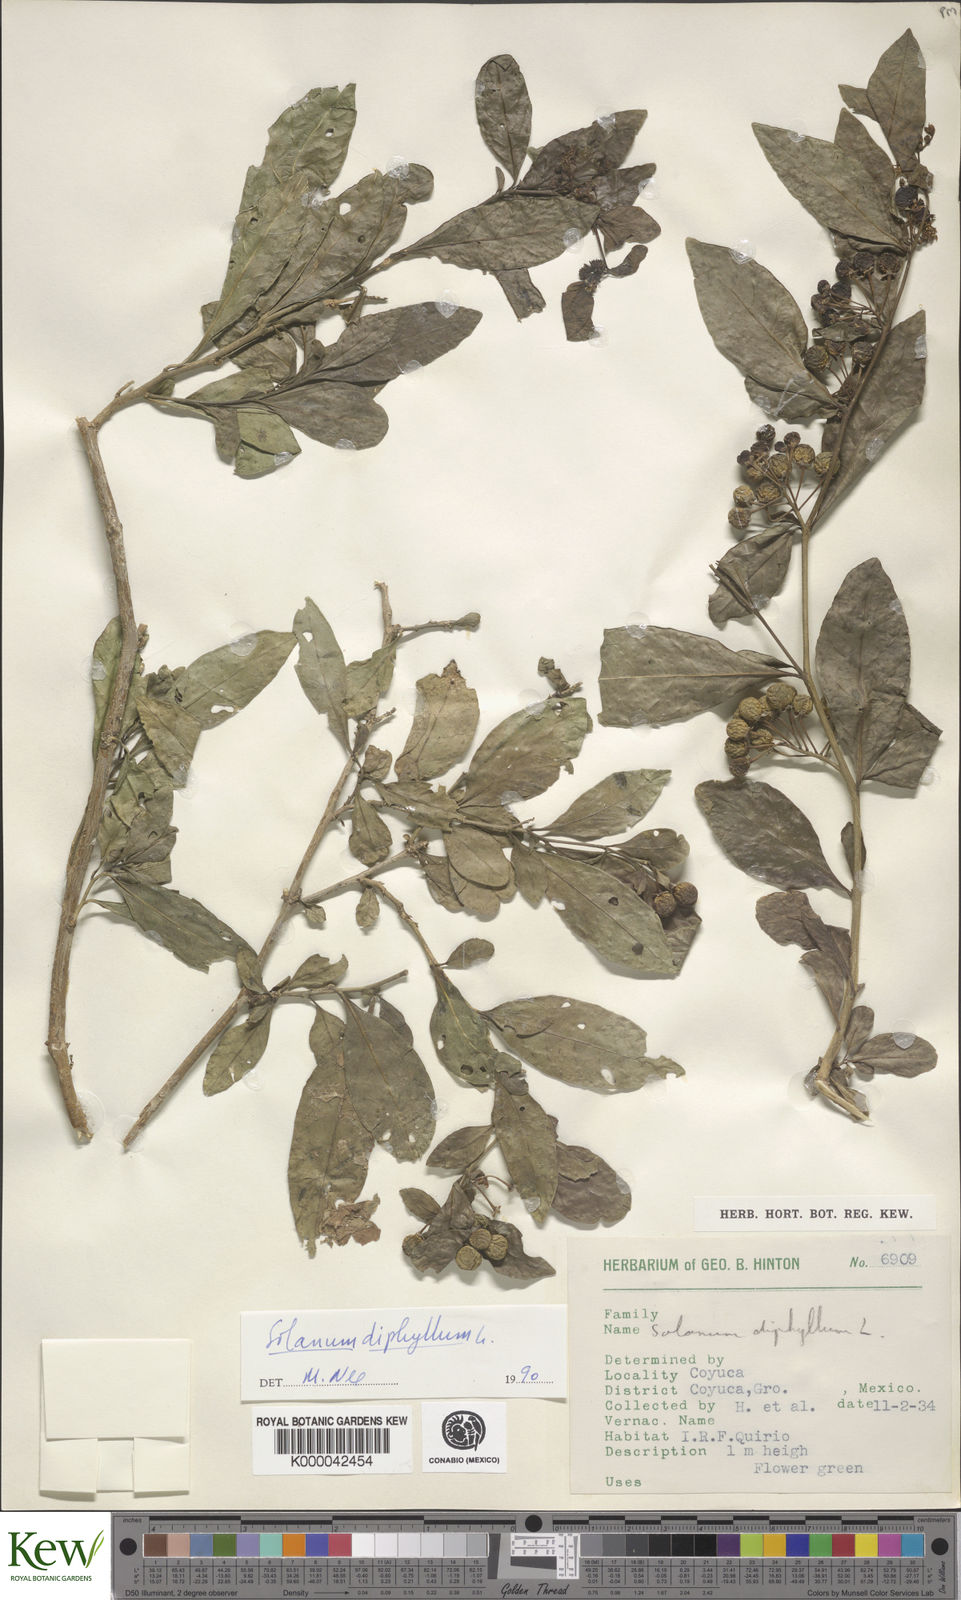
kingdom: Plantae
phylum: Tracheophyta
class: Magnoliopsida
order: Solanales
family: Solanaceae
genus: Solanum
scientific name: Solanum
